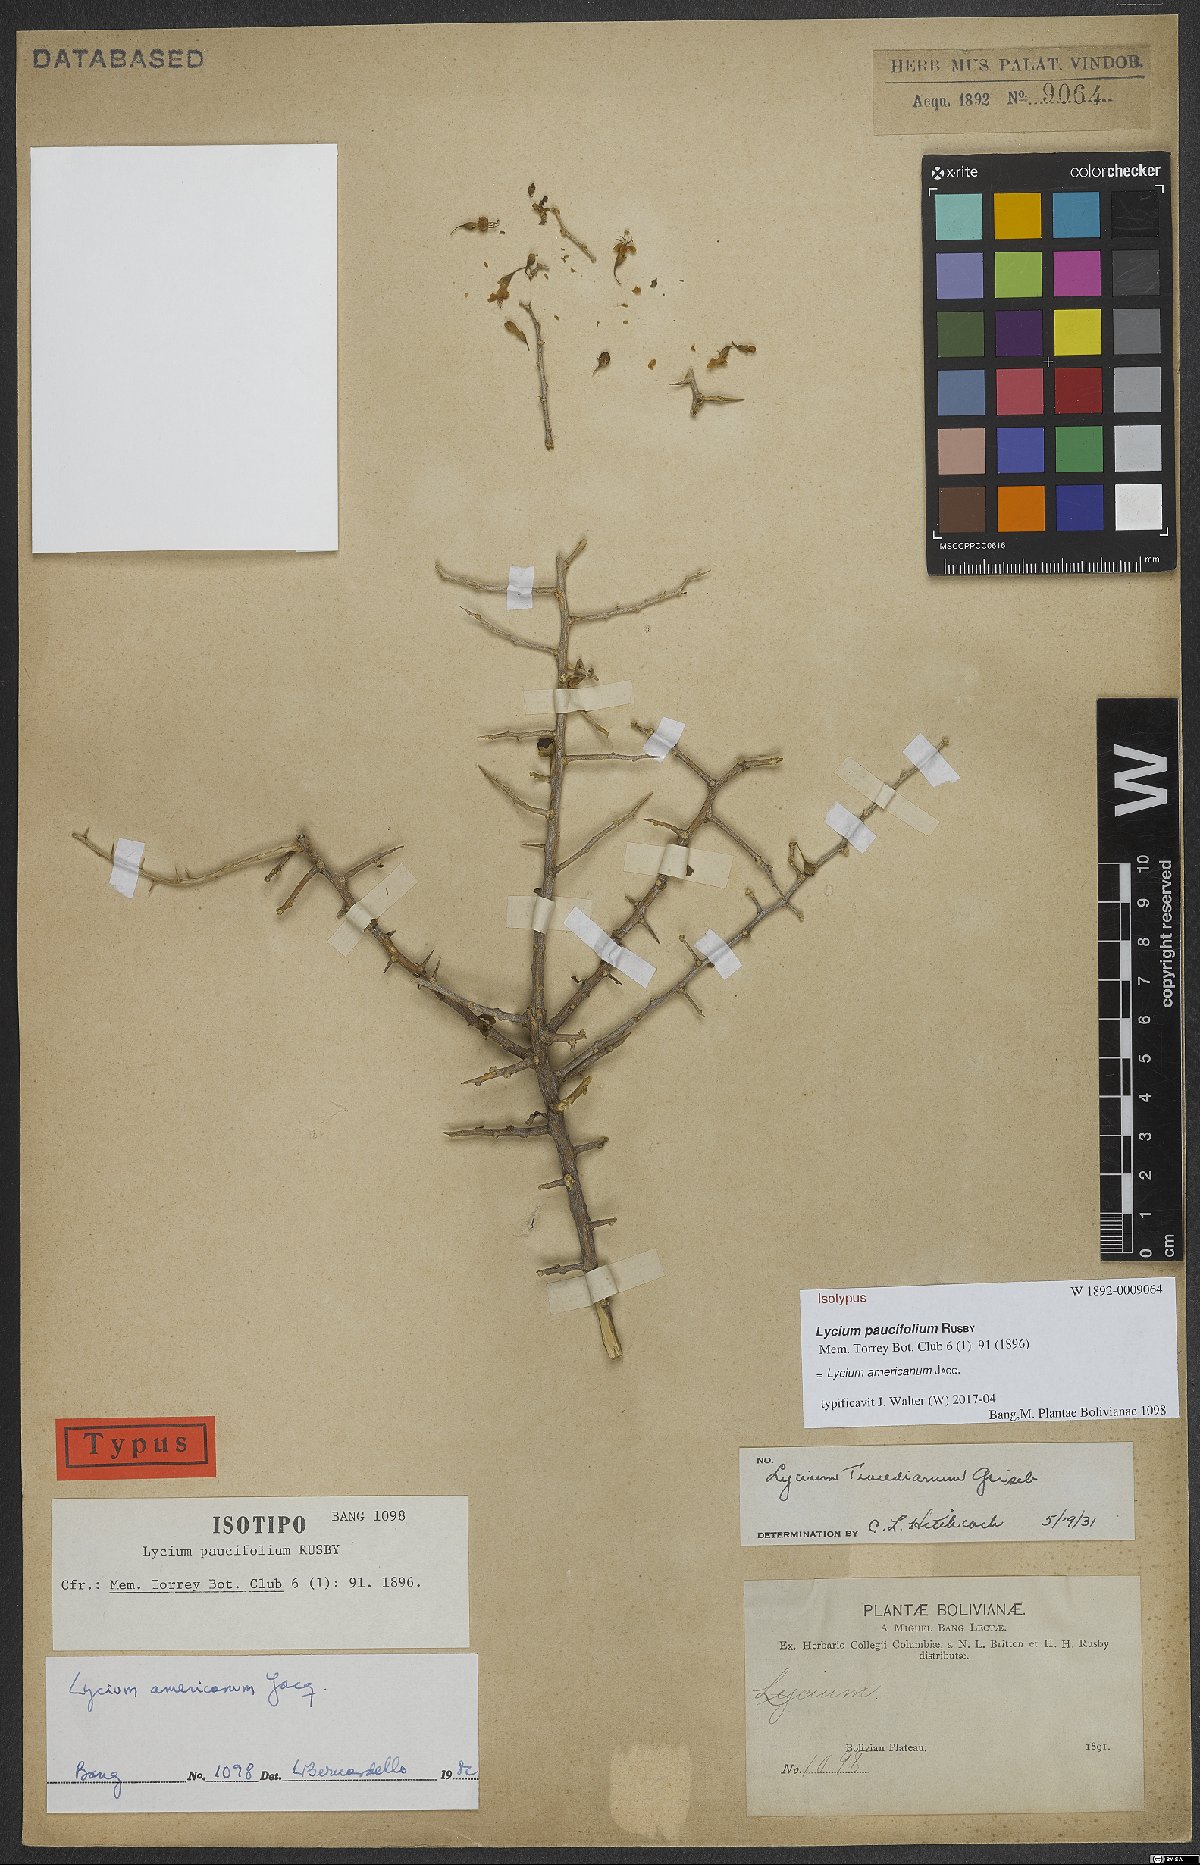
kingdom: Plantae
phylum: Tracheophyta
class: Magnoliopsida
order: Solanales
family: Solanaceae
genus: Lycium
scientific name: Lycium americanum
